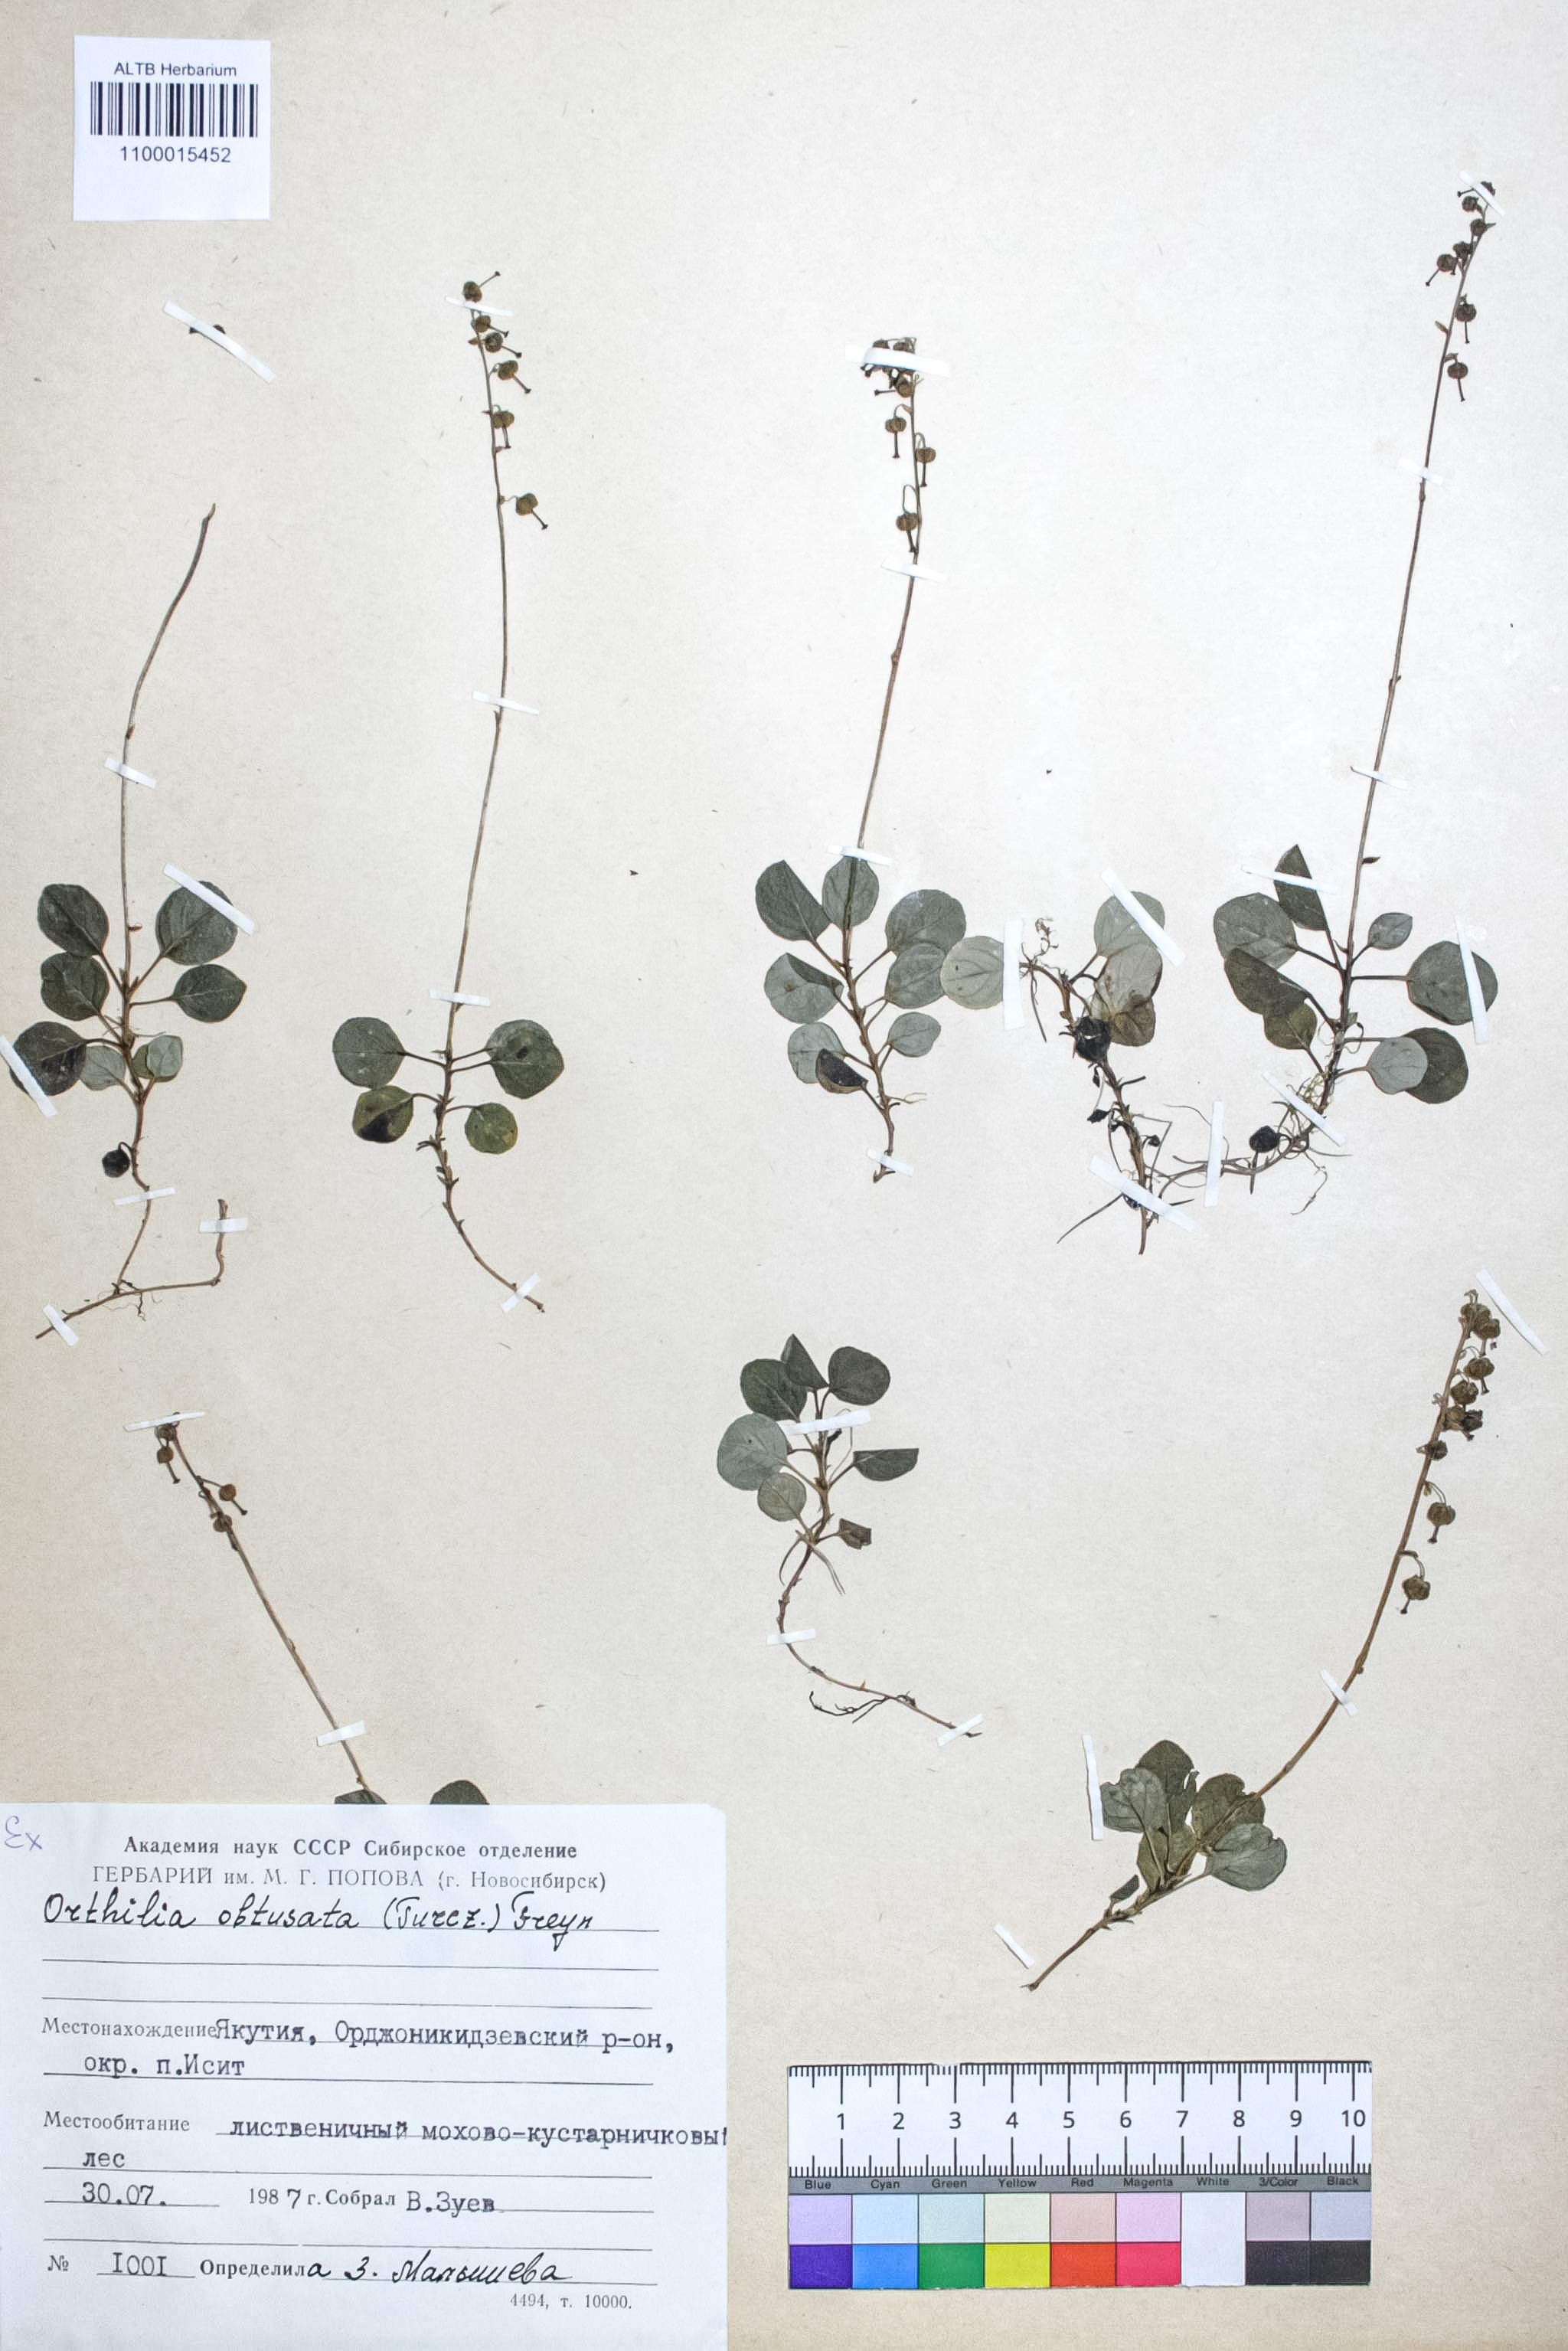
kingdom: Plantae
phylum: Tracheophyta
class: Magnoliopsida
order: Ericales
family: Ericaceae
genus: Orthilia
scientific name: Orthilia secunda
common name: One-sided orthilia
